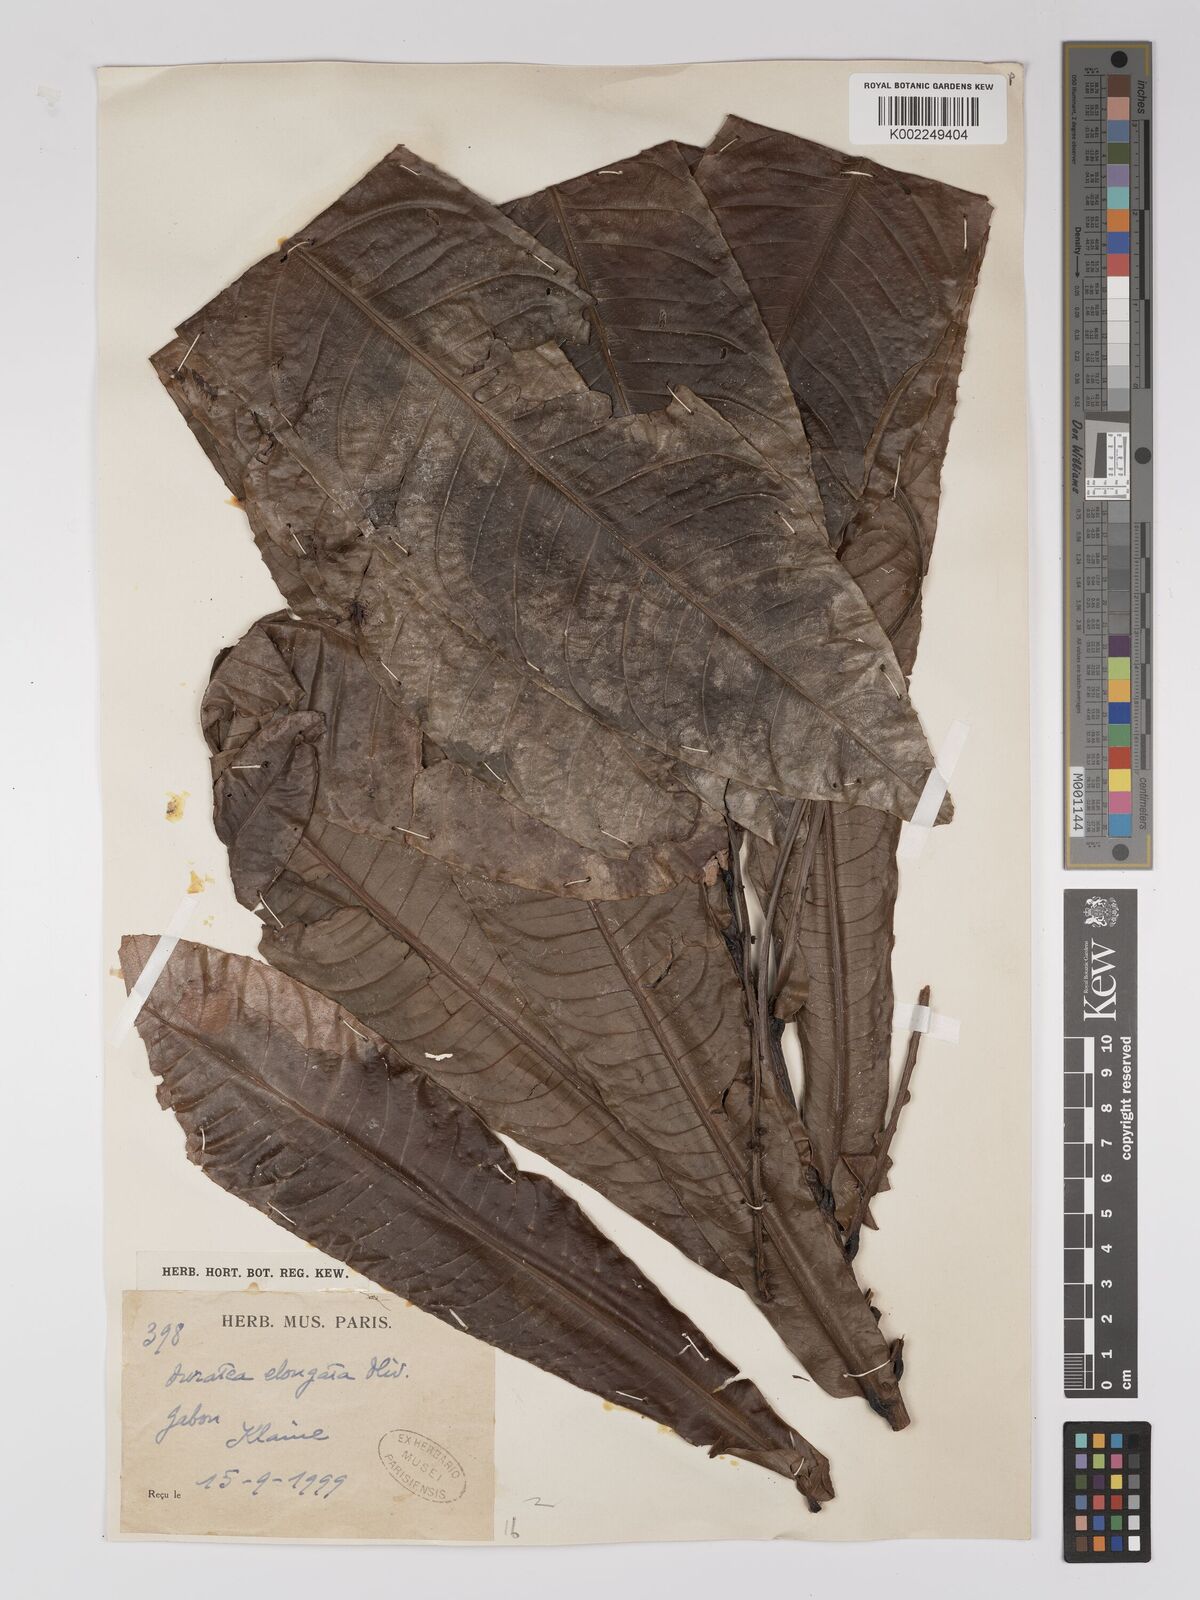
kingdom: Plantae
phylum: Tracheophyta
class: Magnoliopsida
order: Malpighiales
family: Ochnaceae
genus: Gomphia
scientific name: Gomphia elongata
